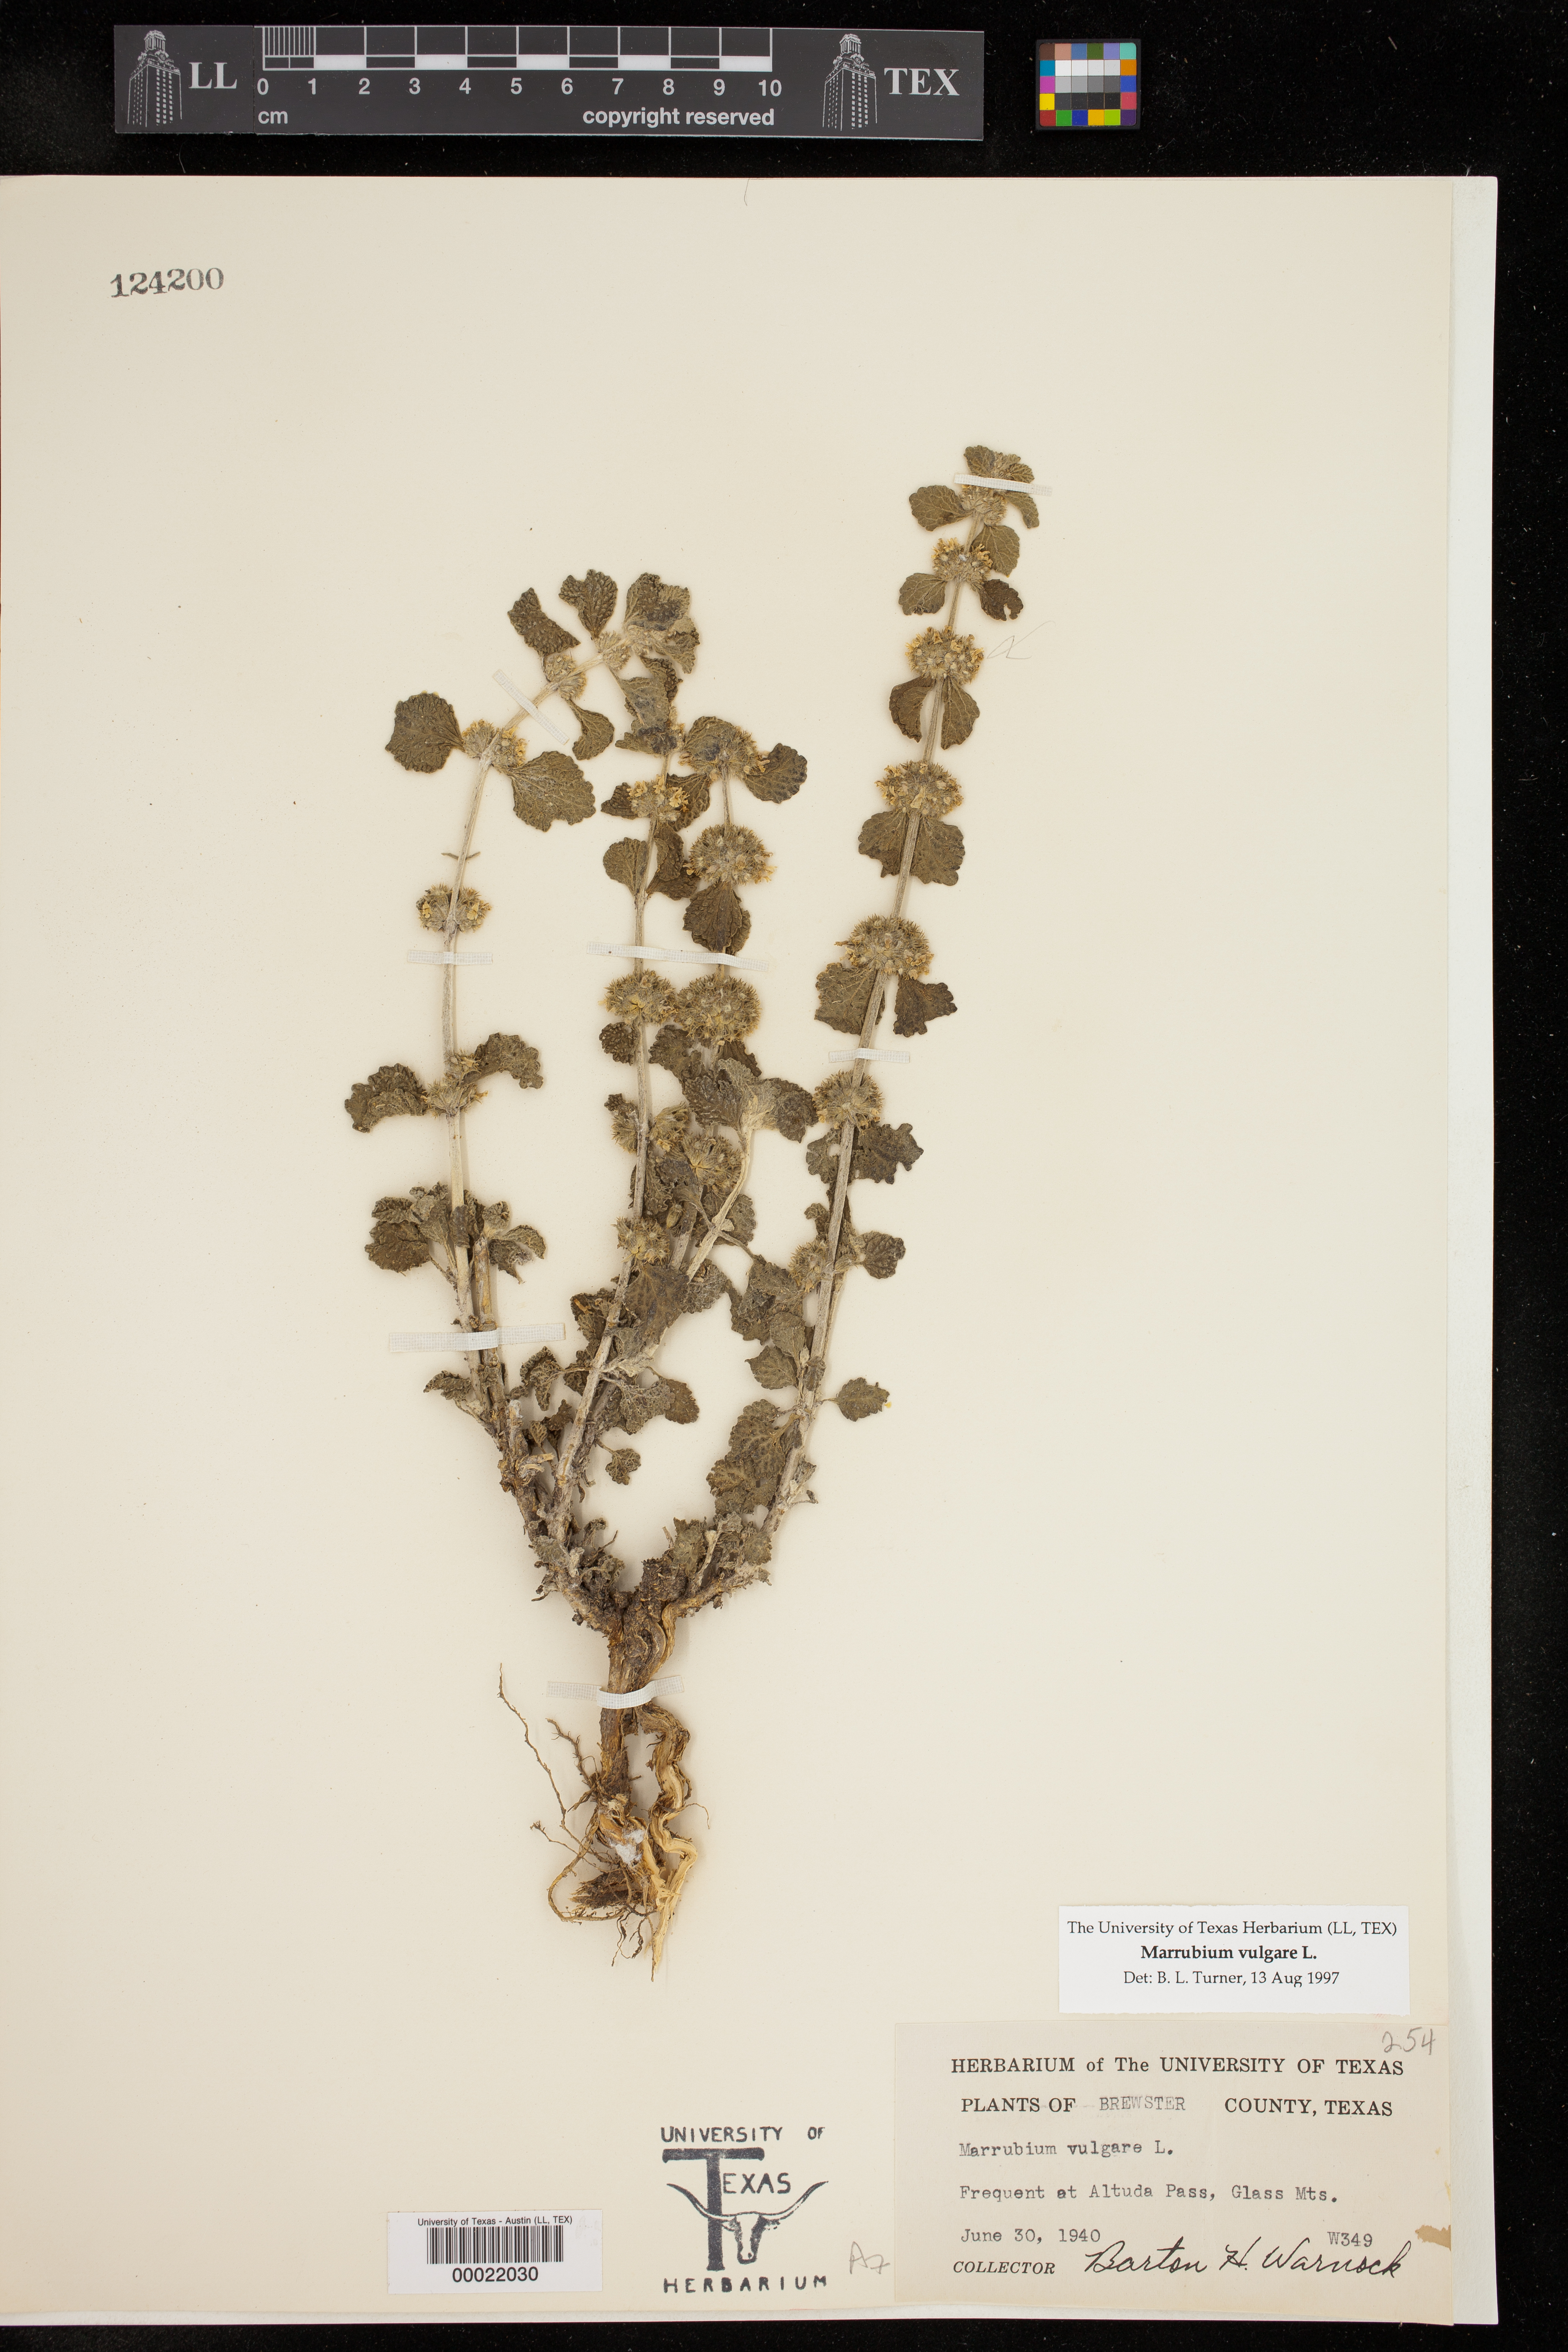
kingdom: Plantae
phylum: Tracheophyta
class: Magnoliopsida
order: Lamiales
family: Lamiaceae
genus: Marrubium
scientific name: Marrubium vulgare
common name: Horehound
